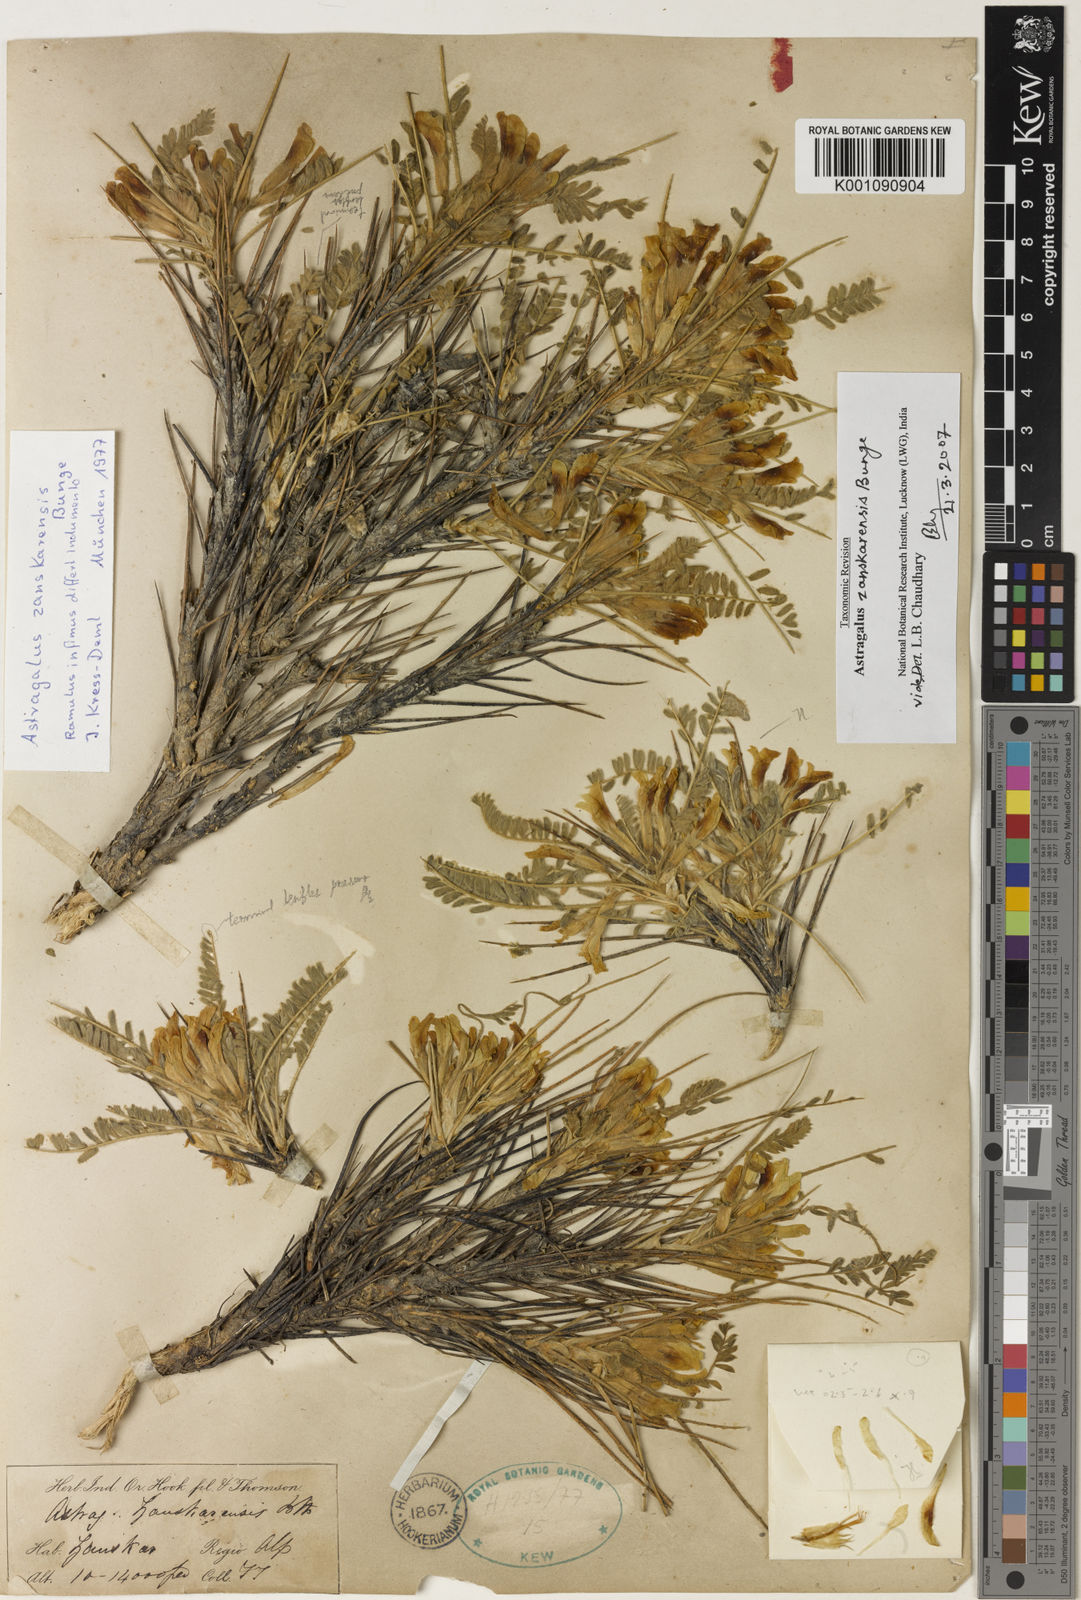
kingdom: Plantae
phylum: Tracheophyta
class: Magnoliopsida
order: Fabales
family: Fabaceae
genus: Astragalus
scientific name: Astragalus
